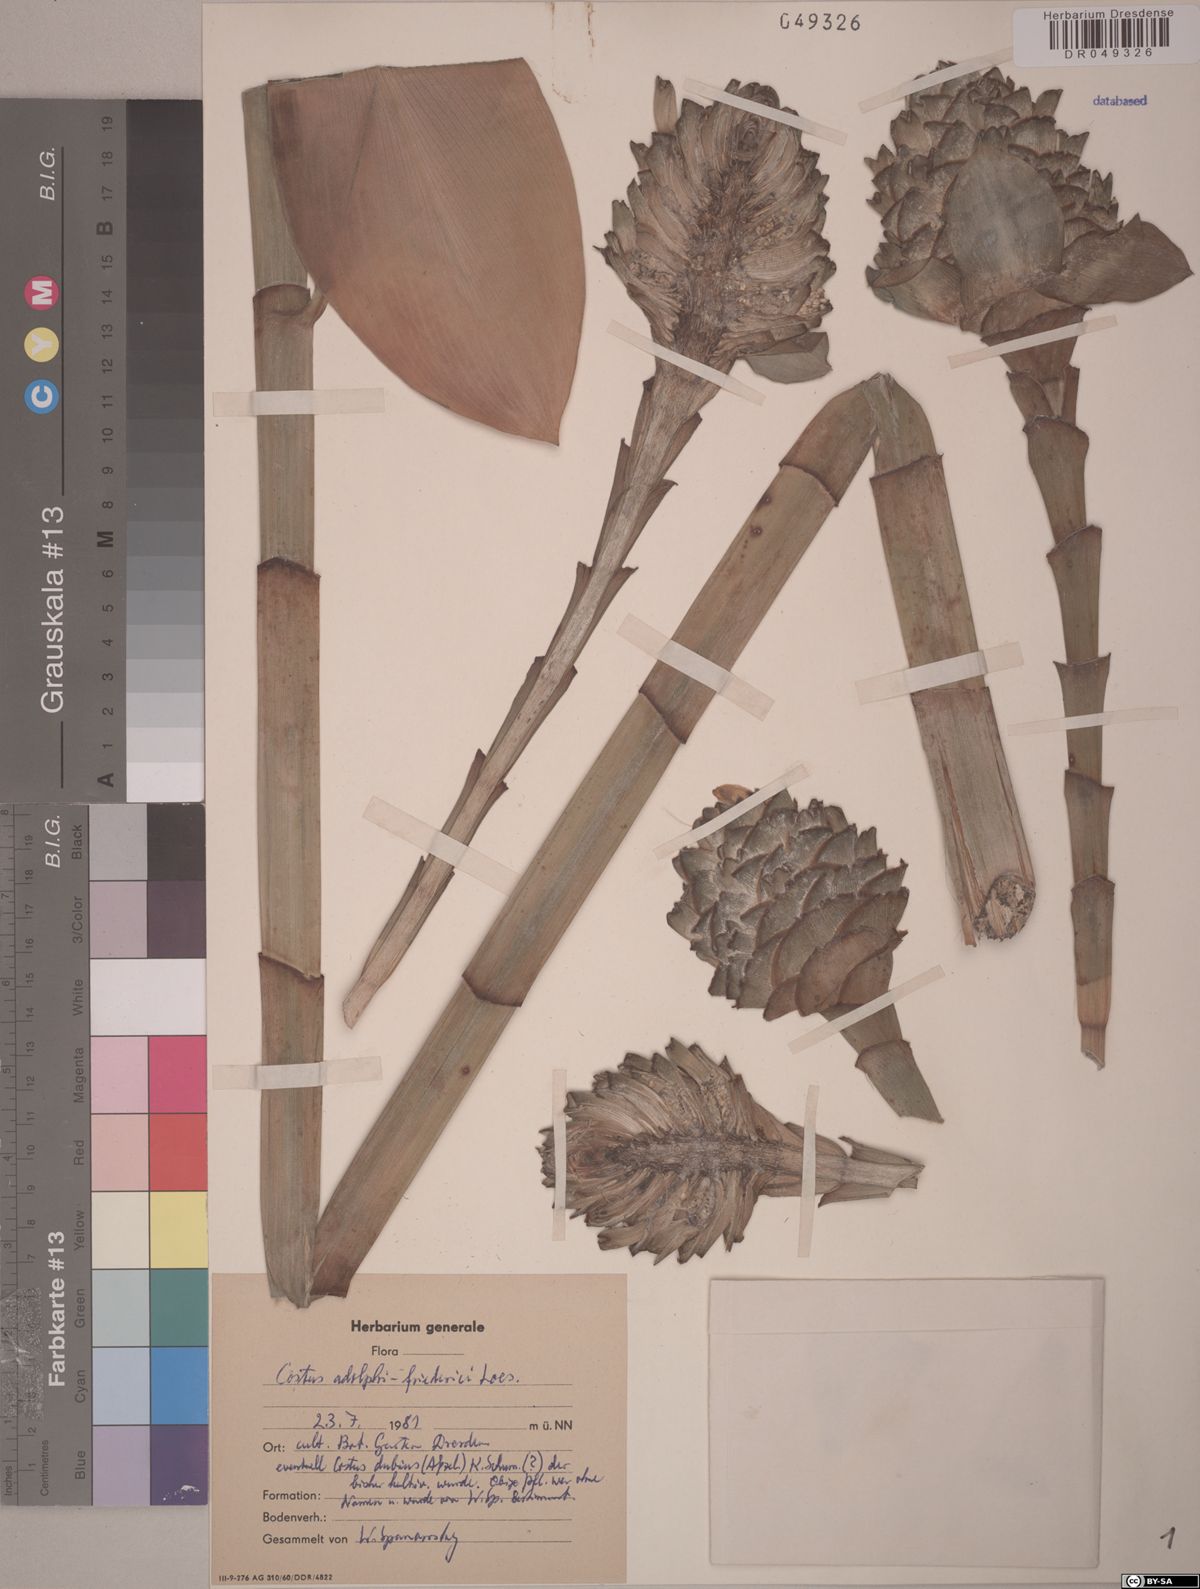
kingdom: Plantae
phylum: Tracheophyta
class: Liliopsida
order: Zingiberales
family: Costaceae
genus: Costus
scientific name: Costus adolphi-friderici
